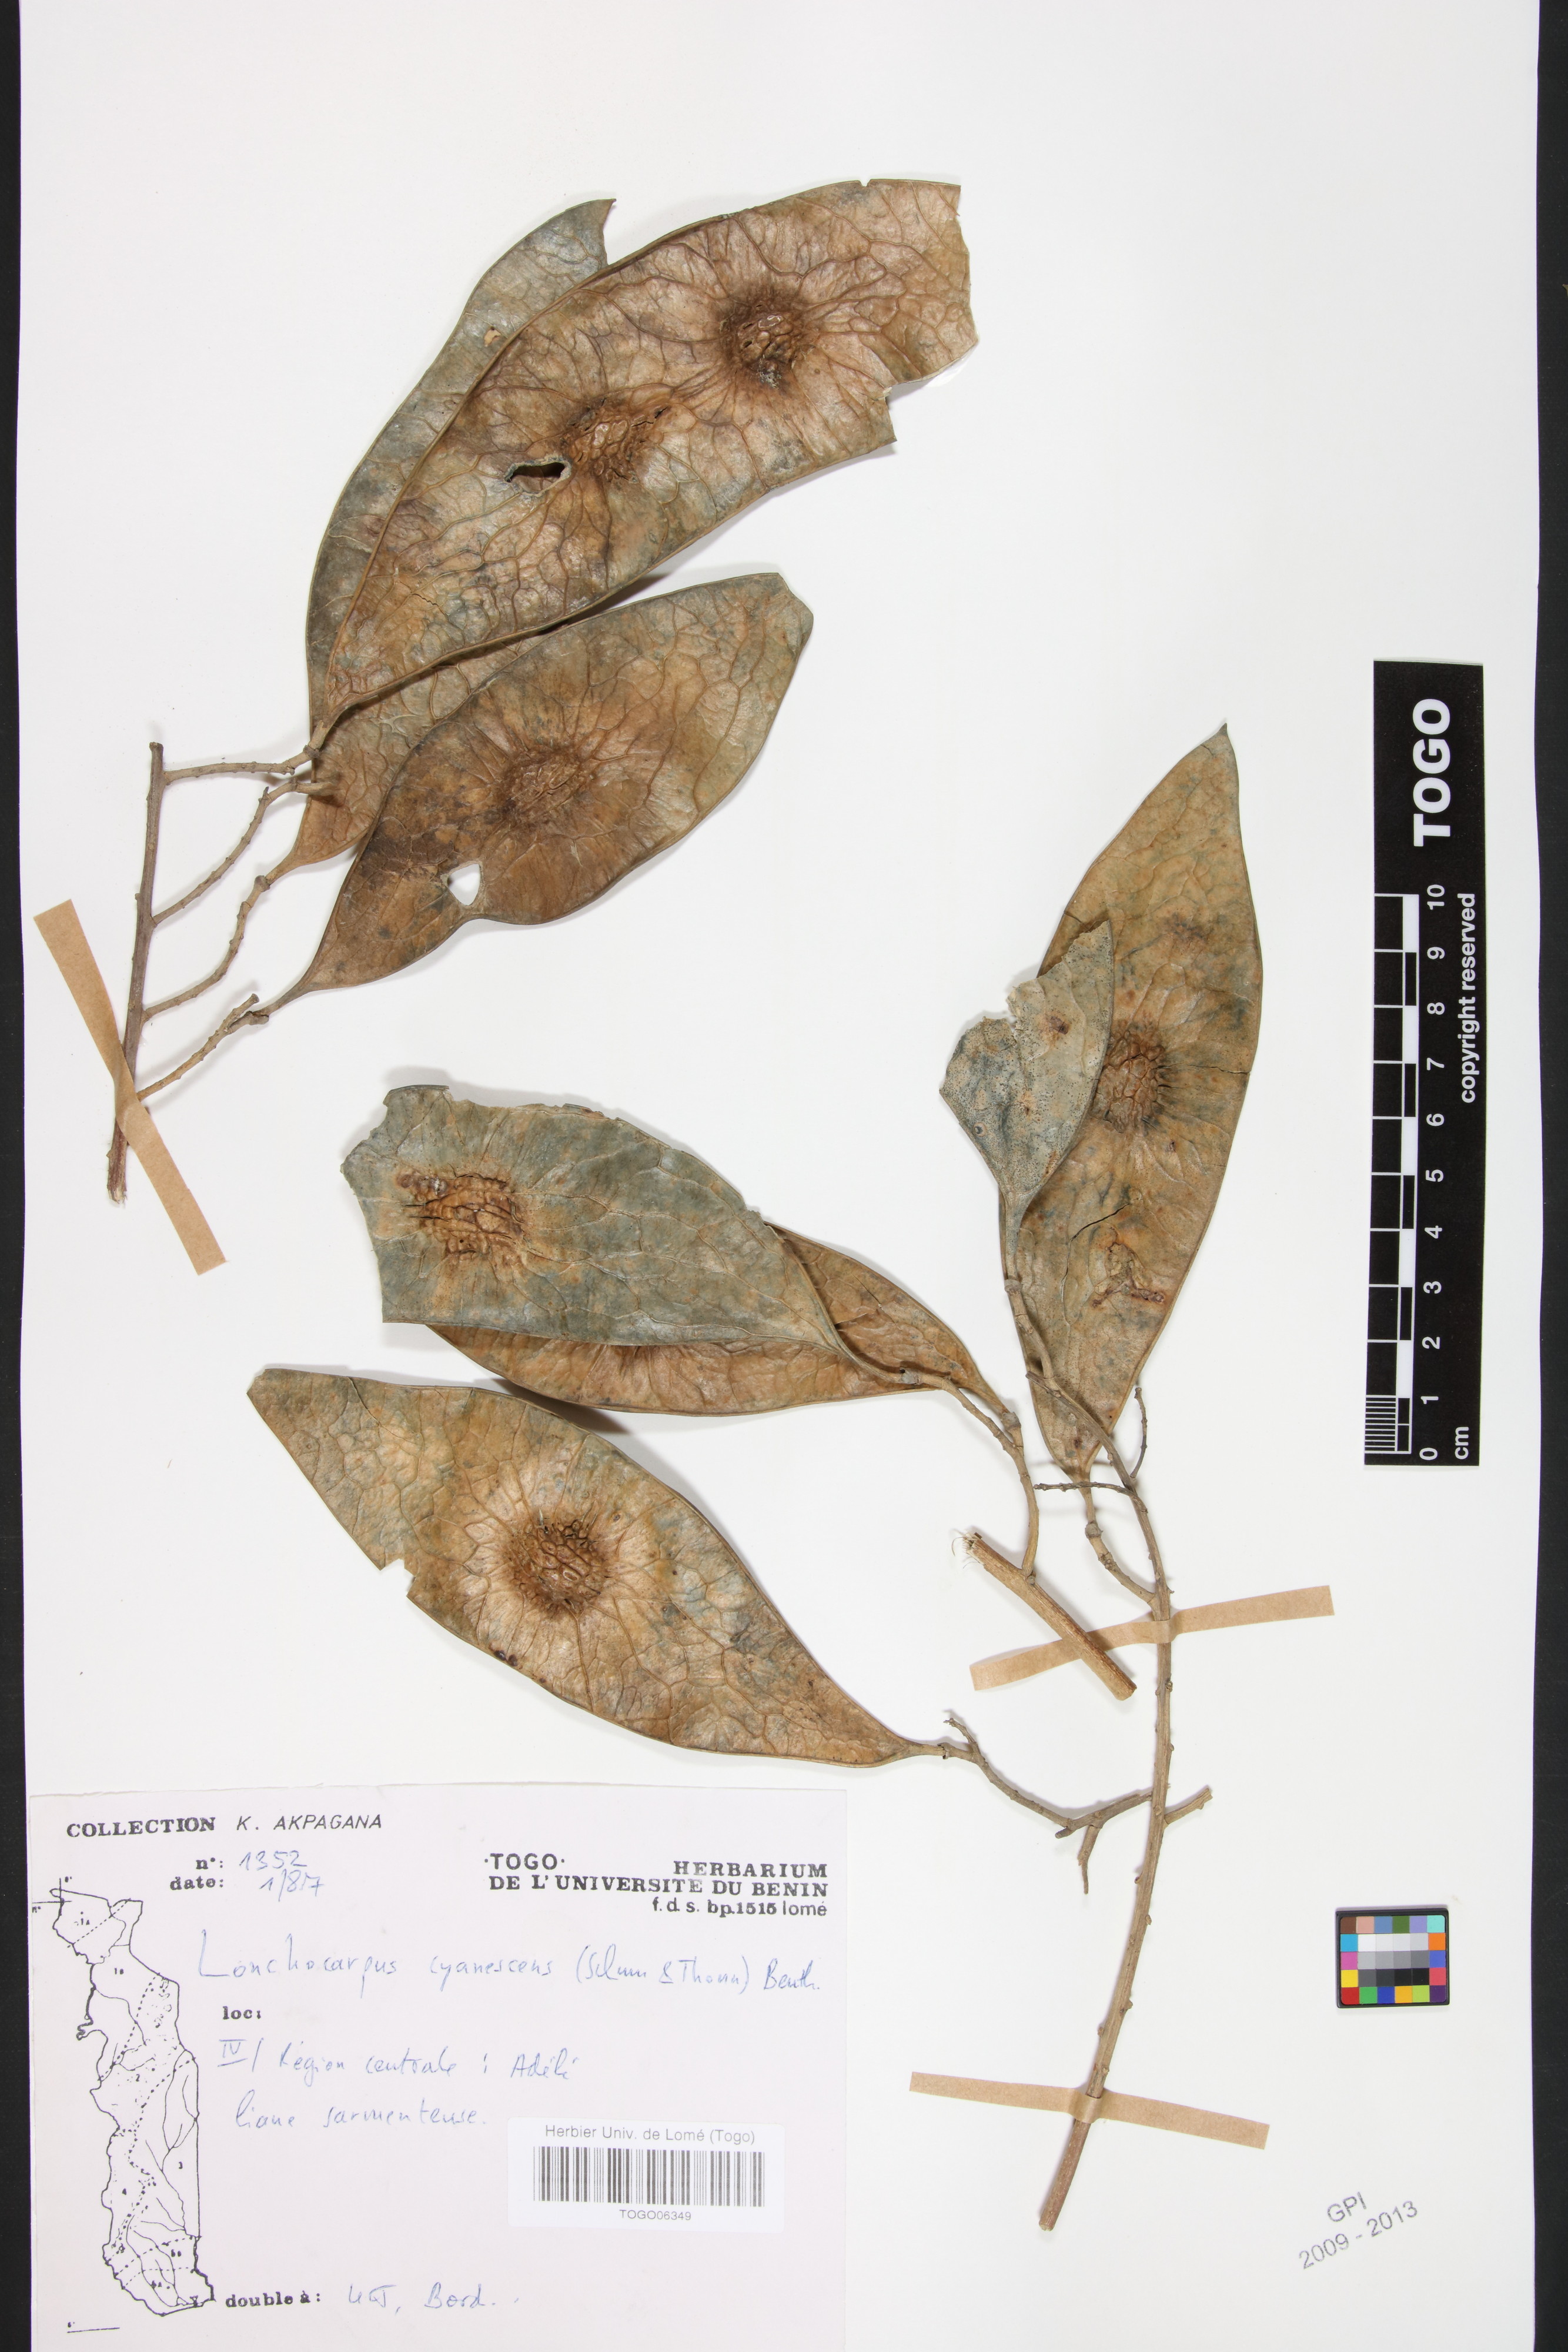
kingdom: Plantae
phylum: Tracheophyta
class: Magnoliopsida
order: Fabales
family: Fabaceae
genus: Philenoptera
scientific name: Philenoptera cyanescens
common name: West african-indigo
